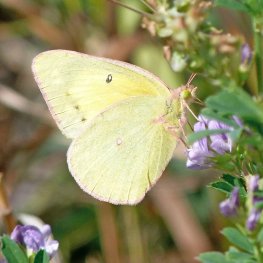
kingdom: Animalia
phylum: Arthropoda
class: Insecta
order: Lepidoptera
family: Pieridae
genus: Colias
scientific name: Colias philodice
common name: Clouded Sulphur
